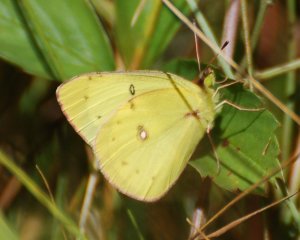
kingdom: Animalia
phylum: Arthropoda
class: Insecta
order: Lepidoptera
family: Pieridae
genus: Colias
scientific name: Colias philodice
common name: Clouded Sulphur
